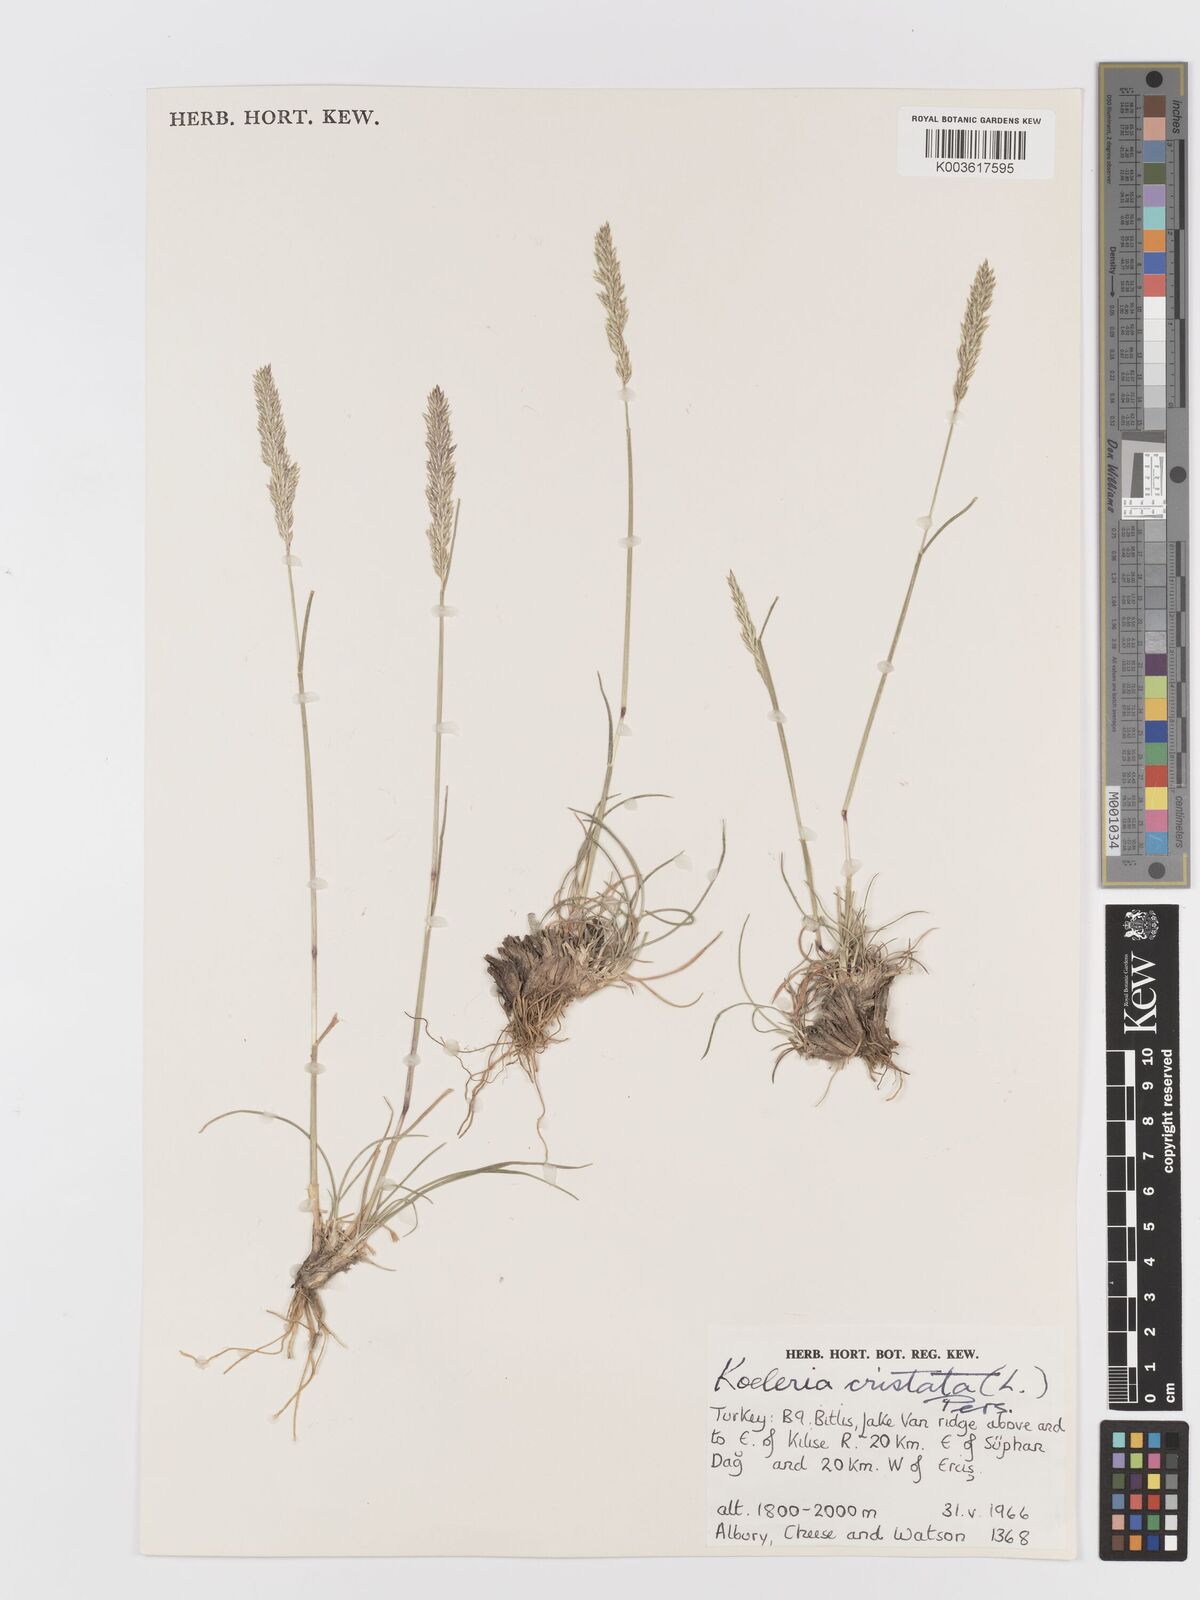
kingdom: Plantae
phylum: Tracheophyta
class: Liliopsida
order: Poales
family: Poaceae
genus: Koeleria
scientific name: Koeleria macrantha
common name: Crested hair-grass
